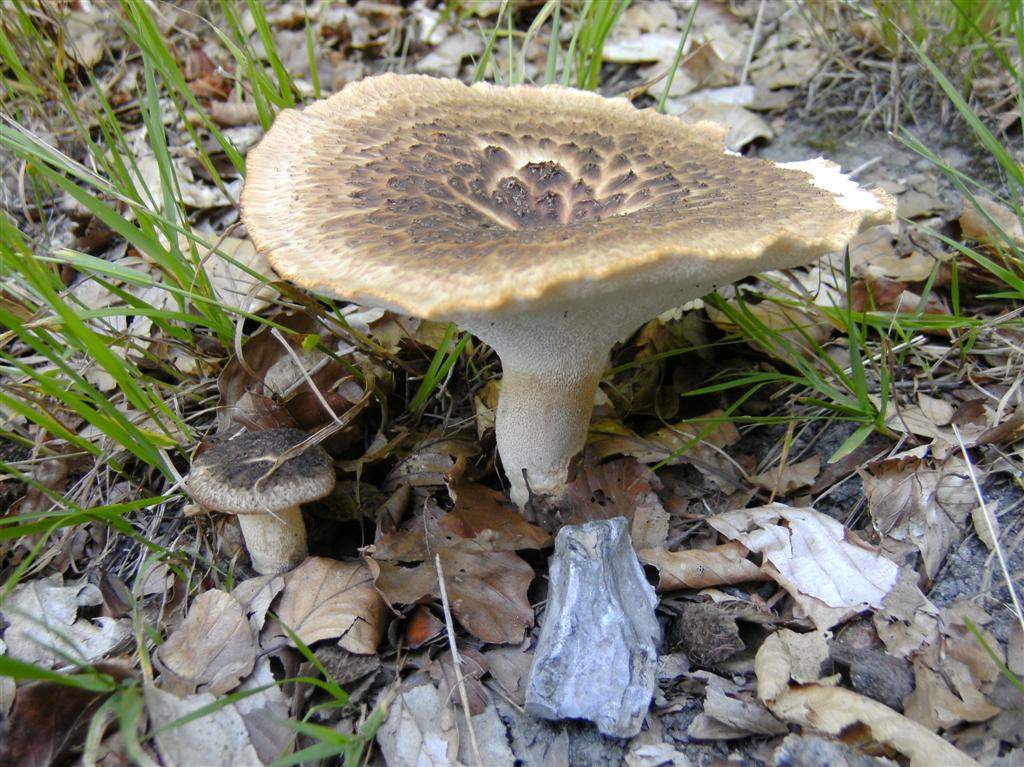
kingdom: Fungi
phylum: Basidiomycota
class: Agaricomycetes
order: Polyporales
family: Polyporaceae
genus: Polyporus
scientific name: Polyporus tuberaster
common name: knoldet stilkporesvamp
